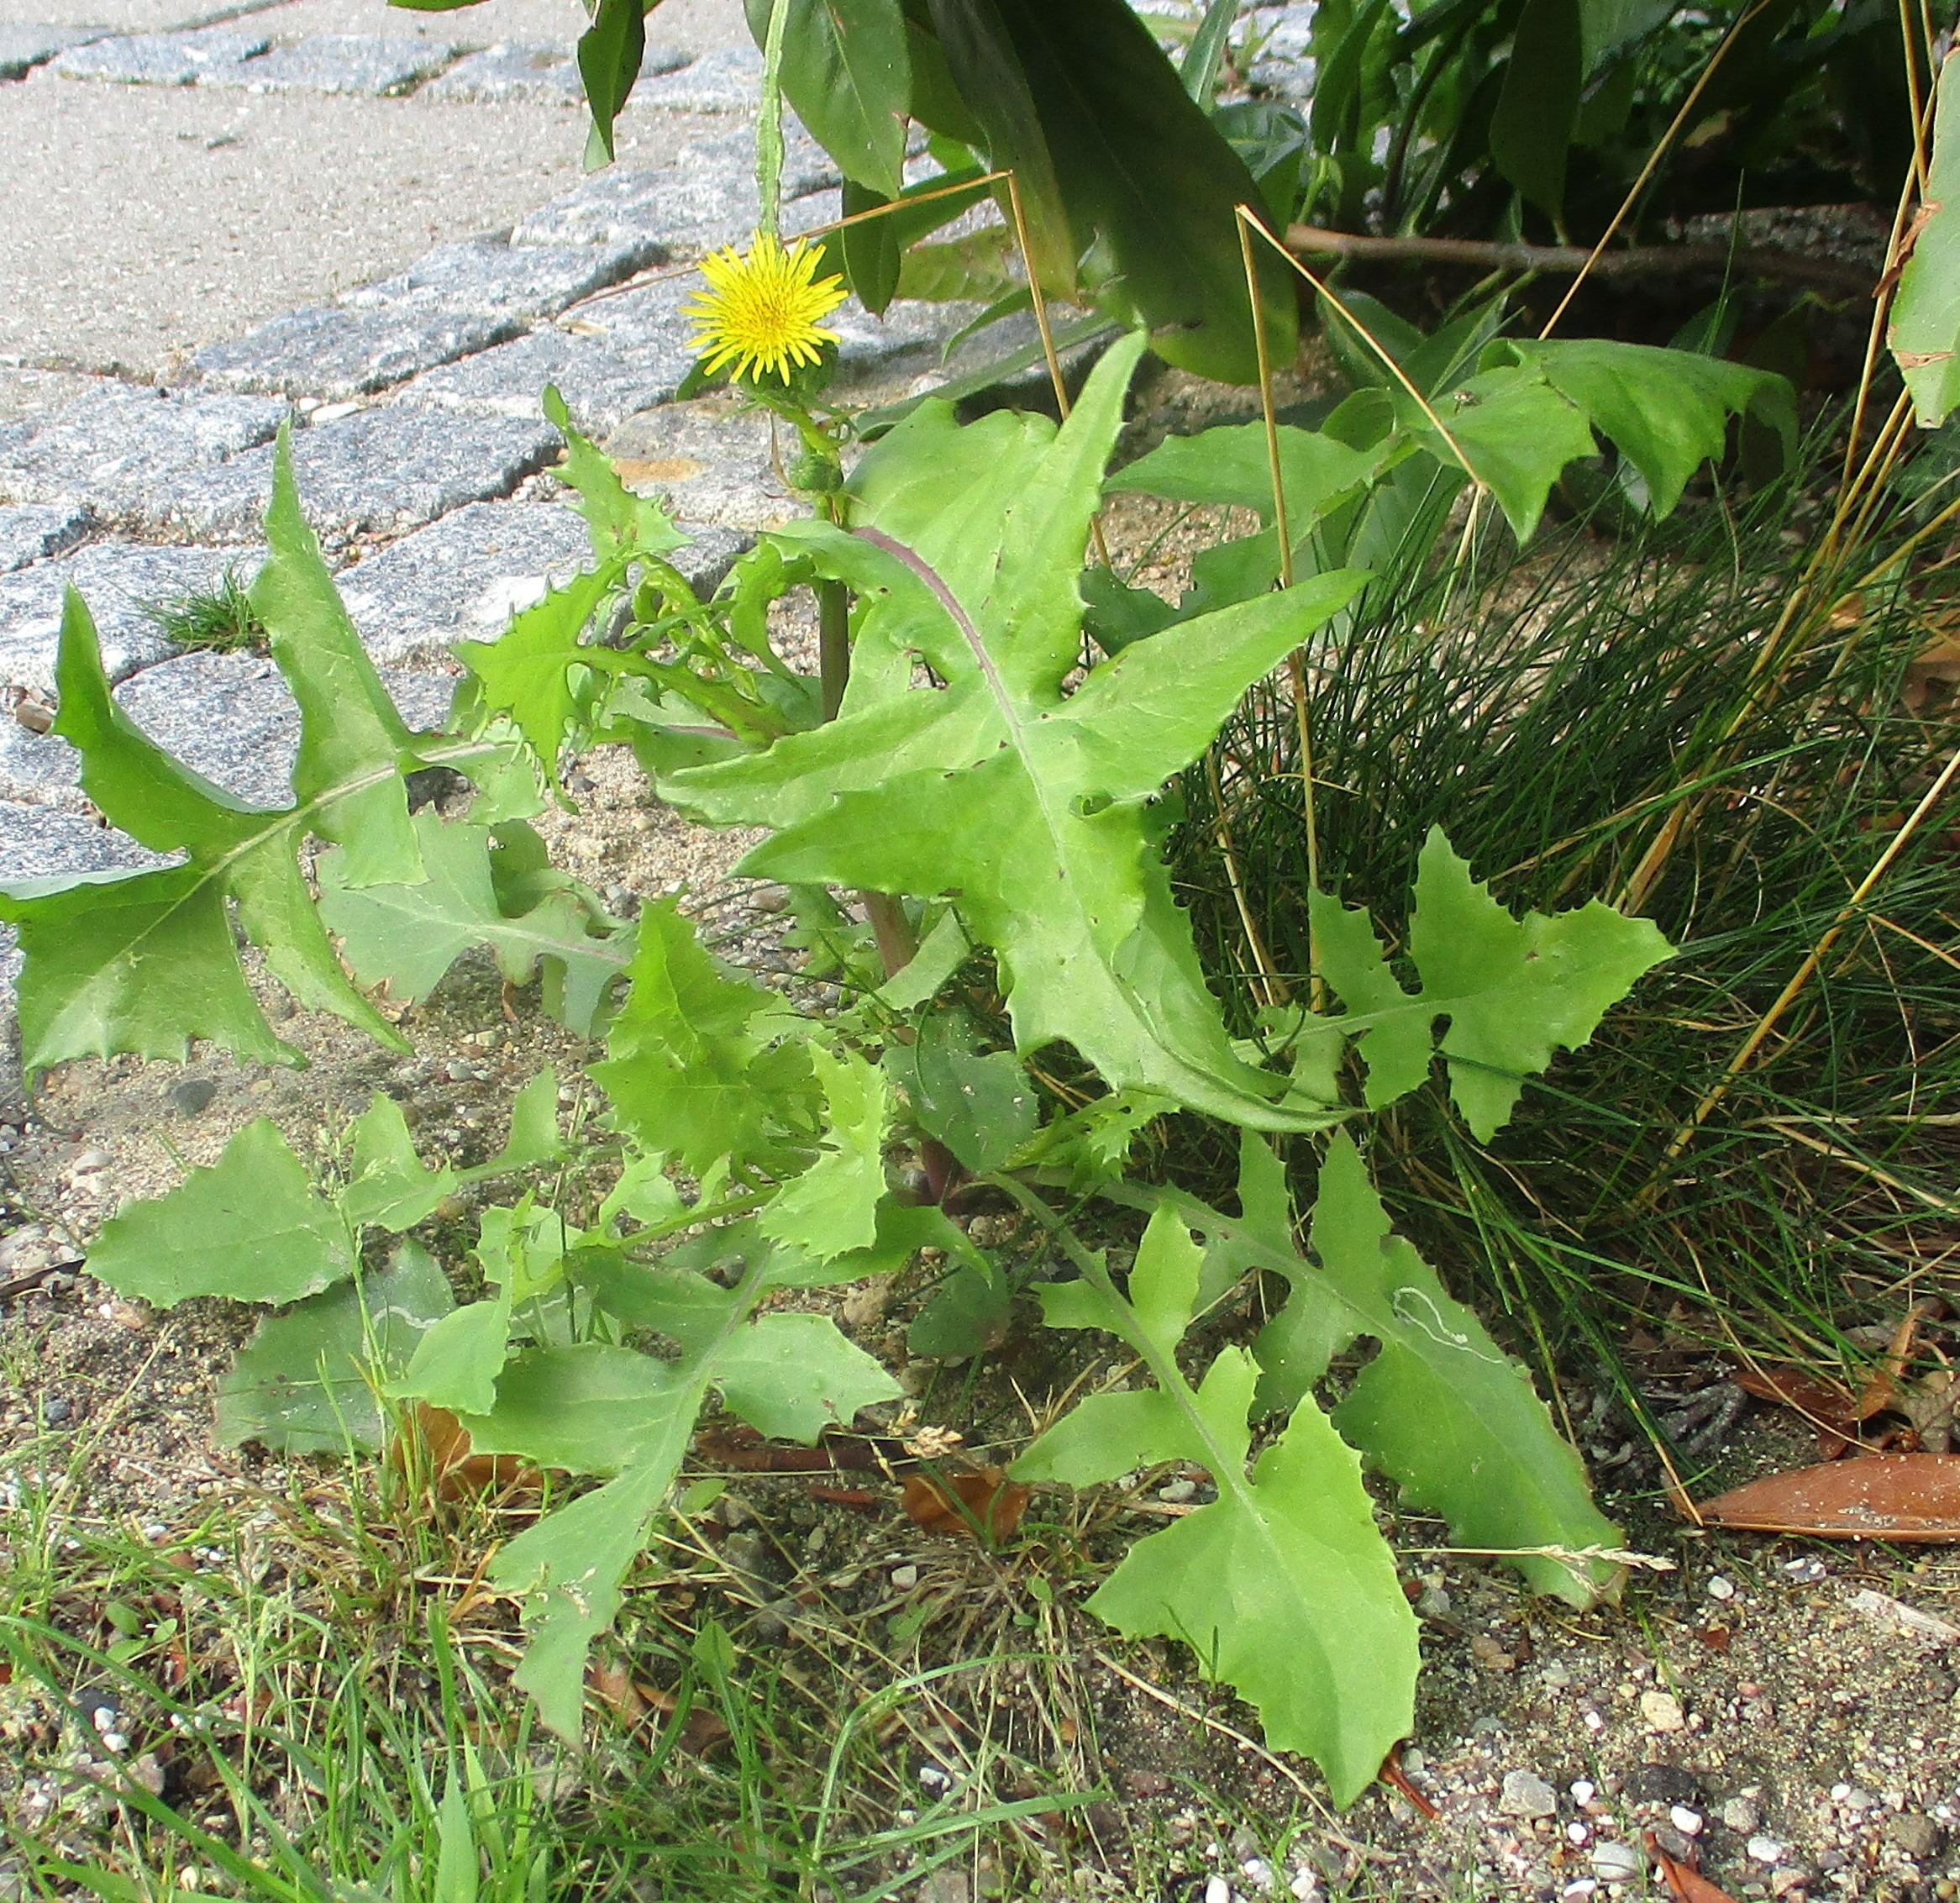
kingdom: Plantae
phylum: Tracheophyta
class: Magnoliopsida
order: Asterales
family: Asteraceae
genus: Sonchus
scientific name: Sonchus oleraceus
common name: Almindelig svinemælk
